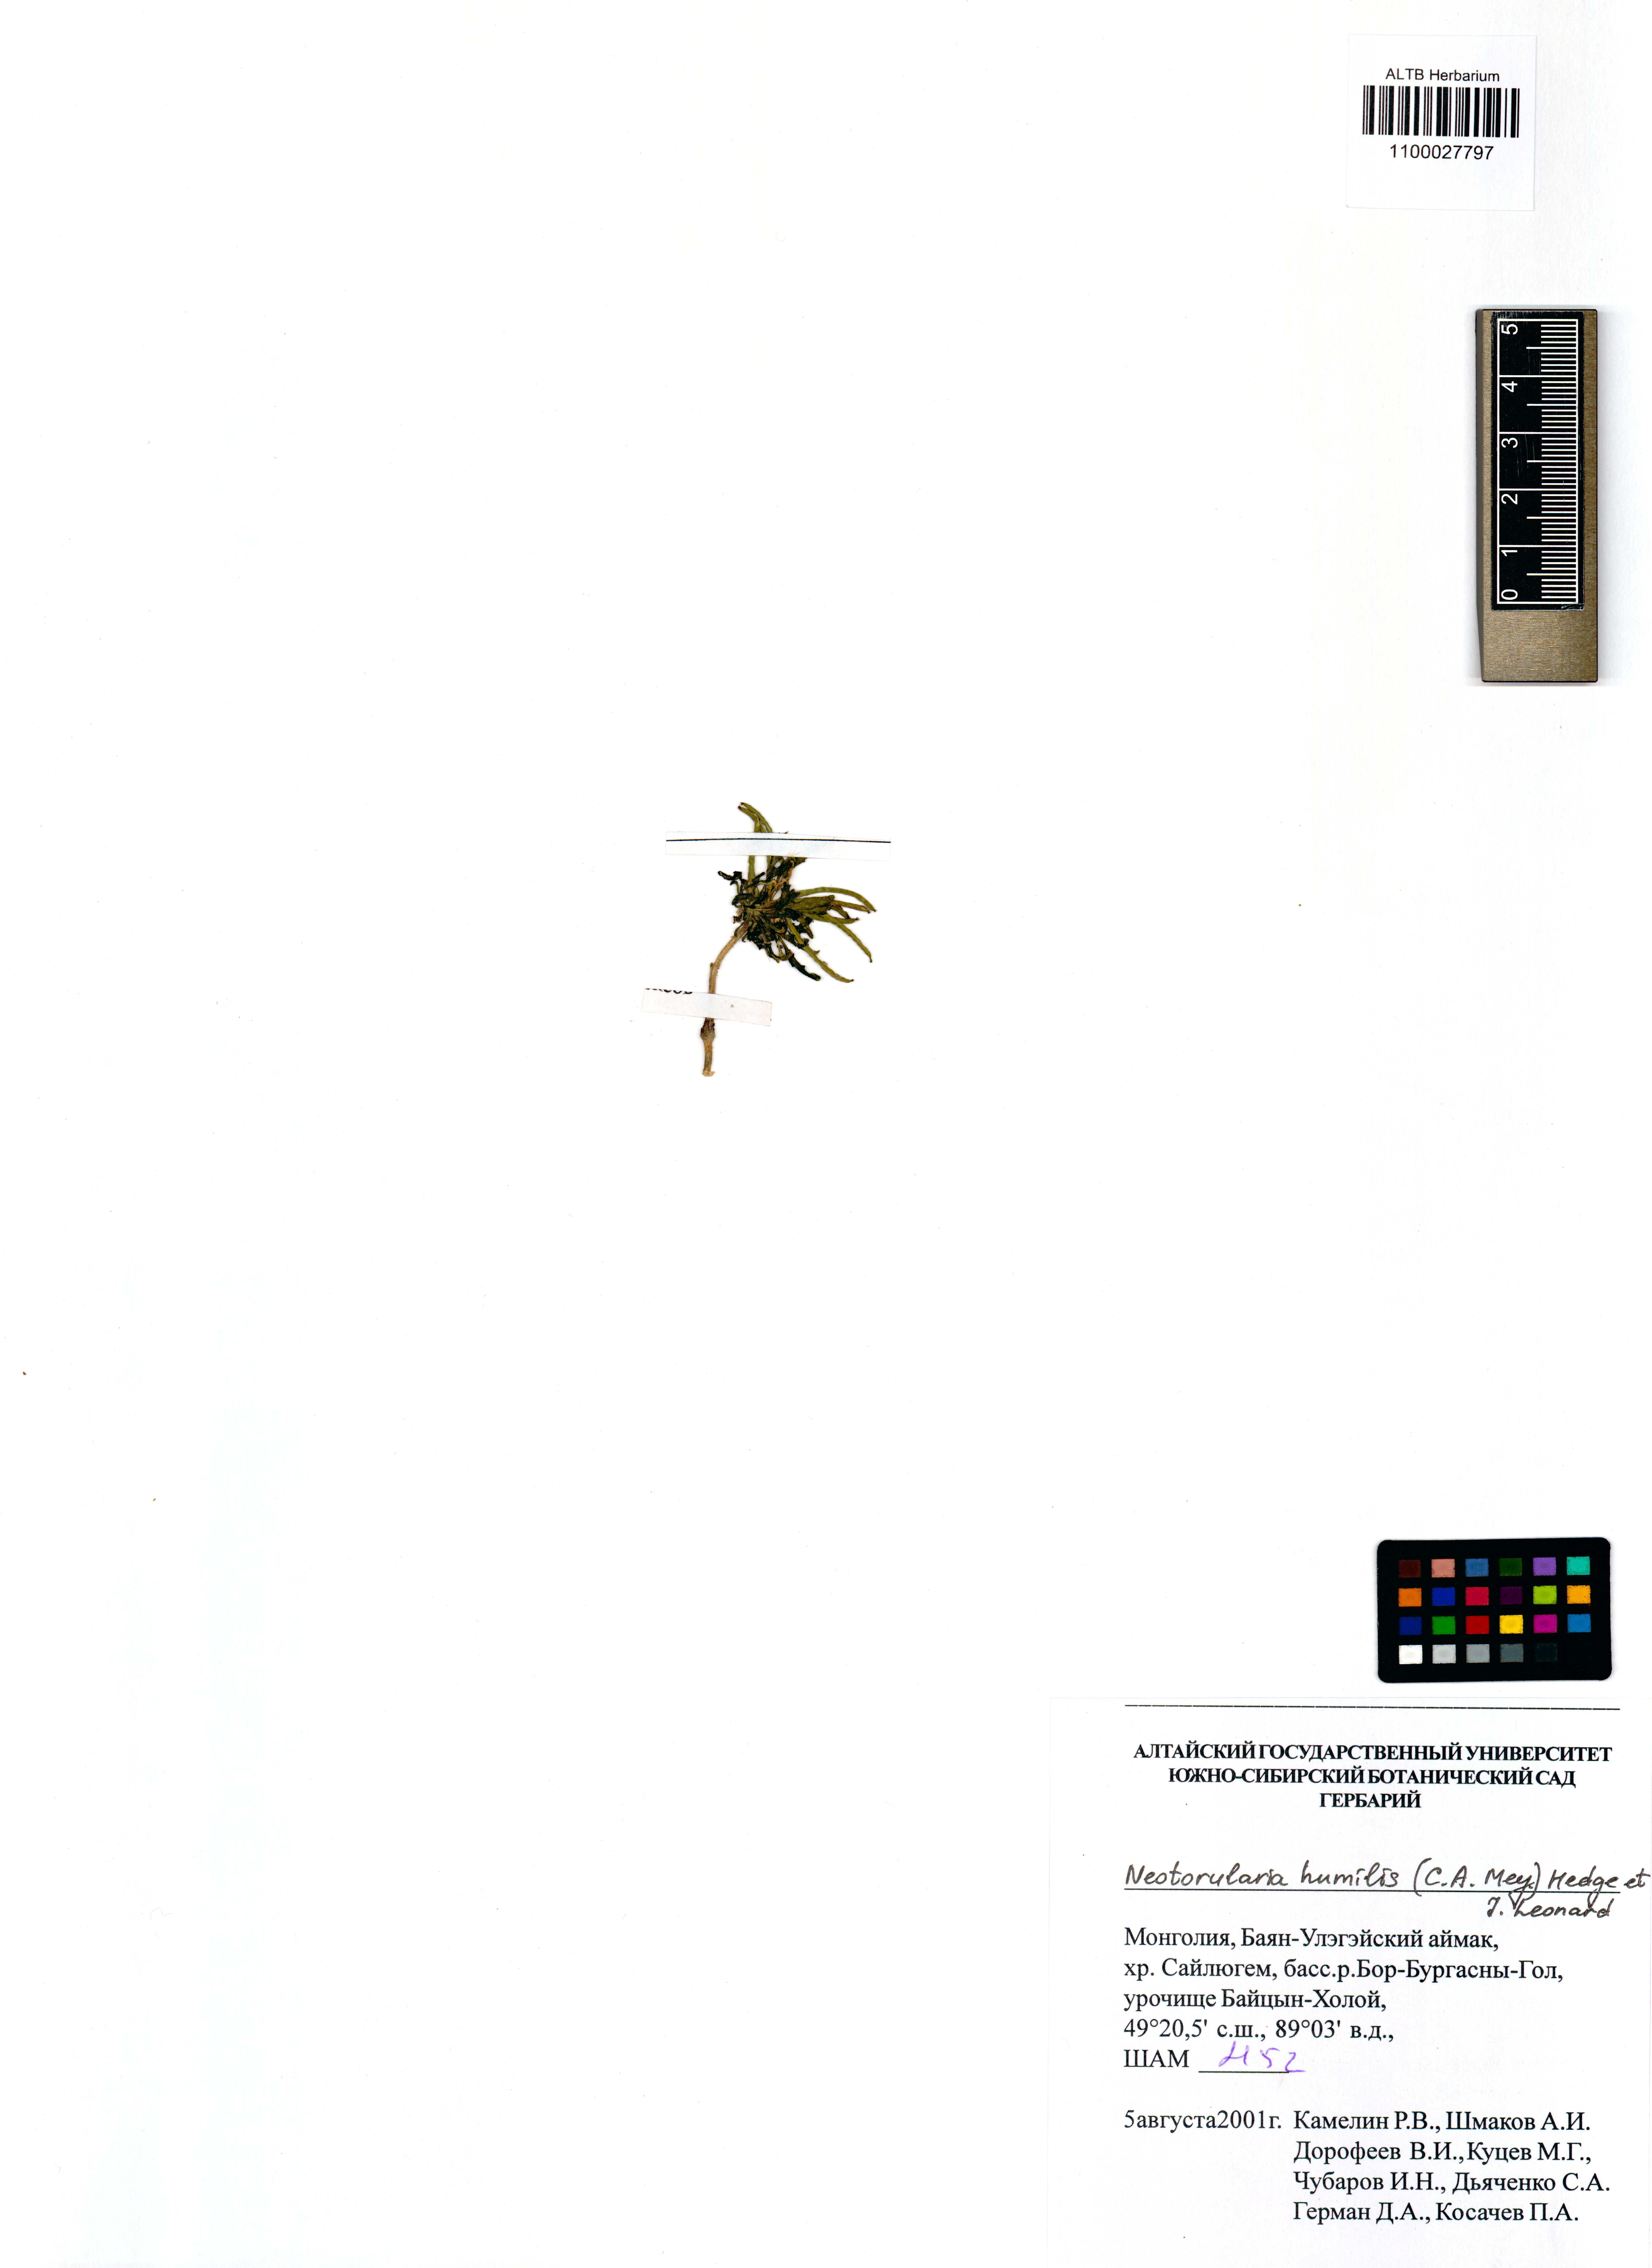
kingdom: Plantae
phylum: Tracheophyta
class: Magnoliopsida
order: Brassicales
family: Brassicaceae
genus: Braya
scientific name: Braya humilis
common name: Alpine northern rockcress
